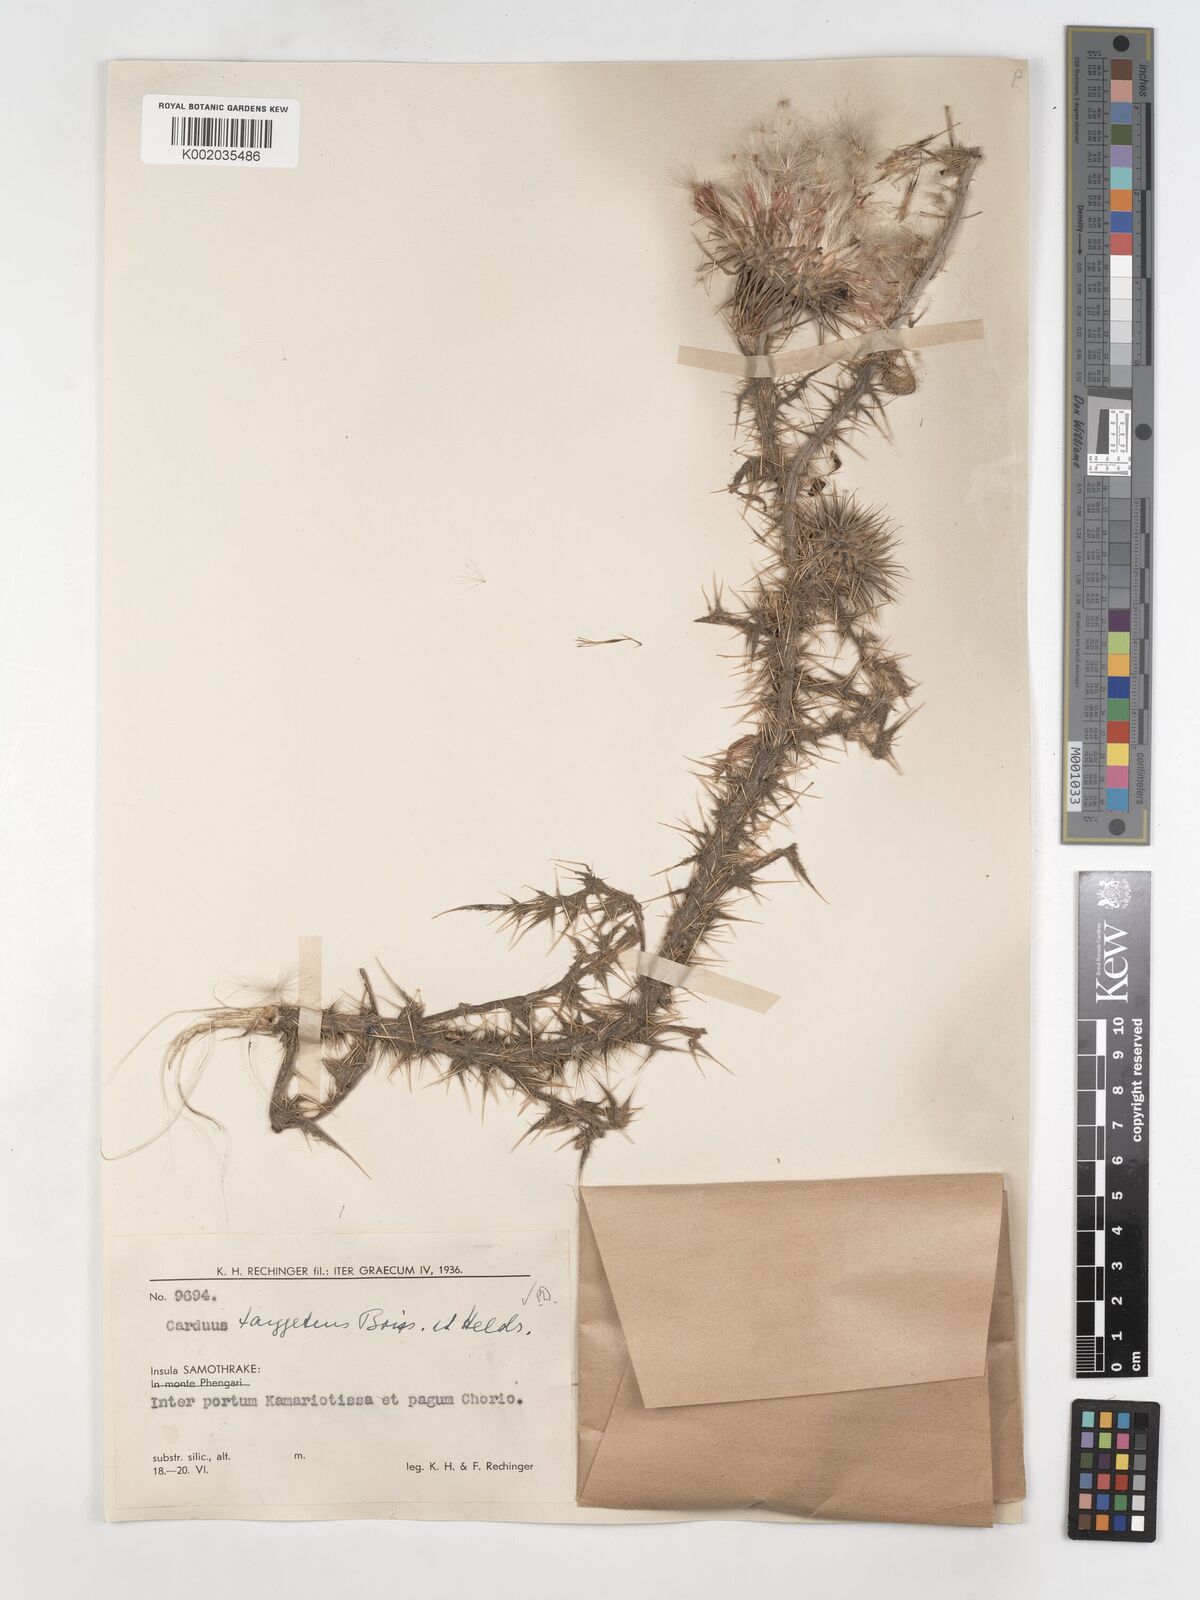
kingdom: Plantae
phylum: Tracheophyta
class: Magnoliopsida
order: Asterales
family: Asteraceae
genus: Carduus
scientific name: Carduus nutans
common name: Musk thistle
